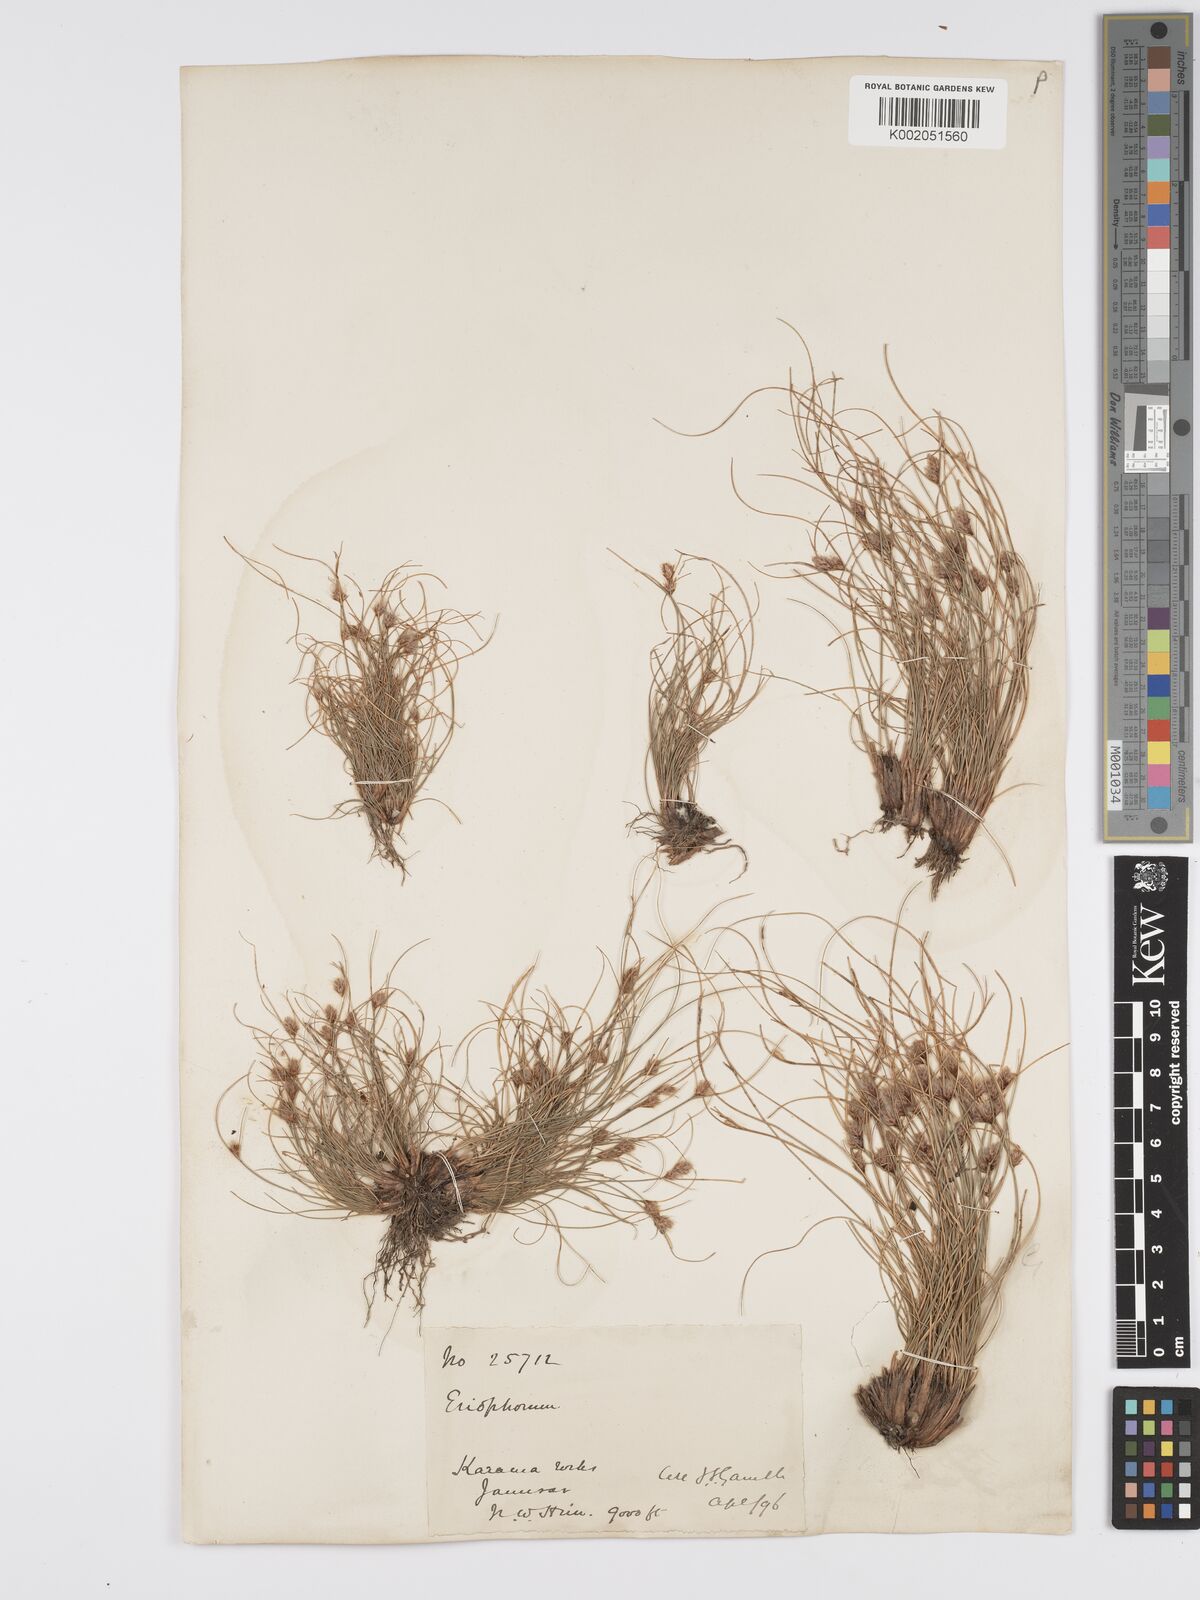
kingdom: Plantae
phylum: Tracheophyta
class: Liliopsida
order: Poales
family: Cyperaceae
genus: Erioscirpus
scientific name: Erioscirpus microstachyus
